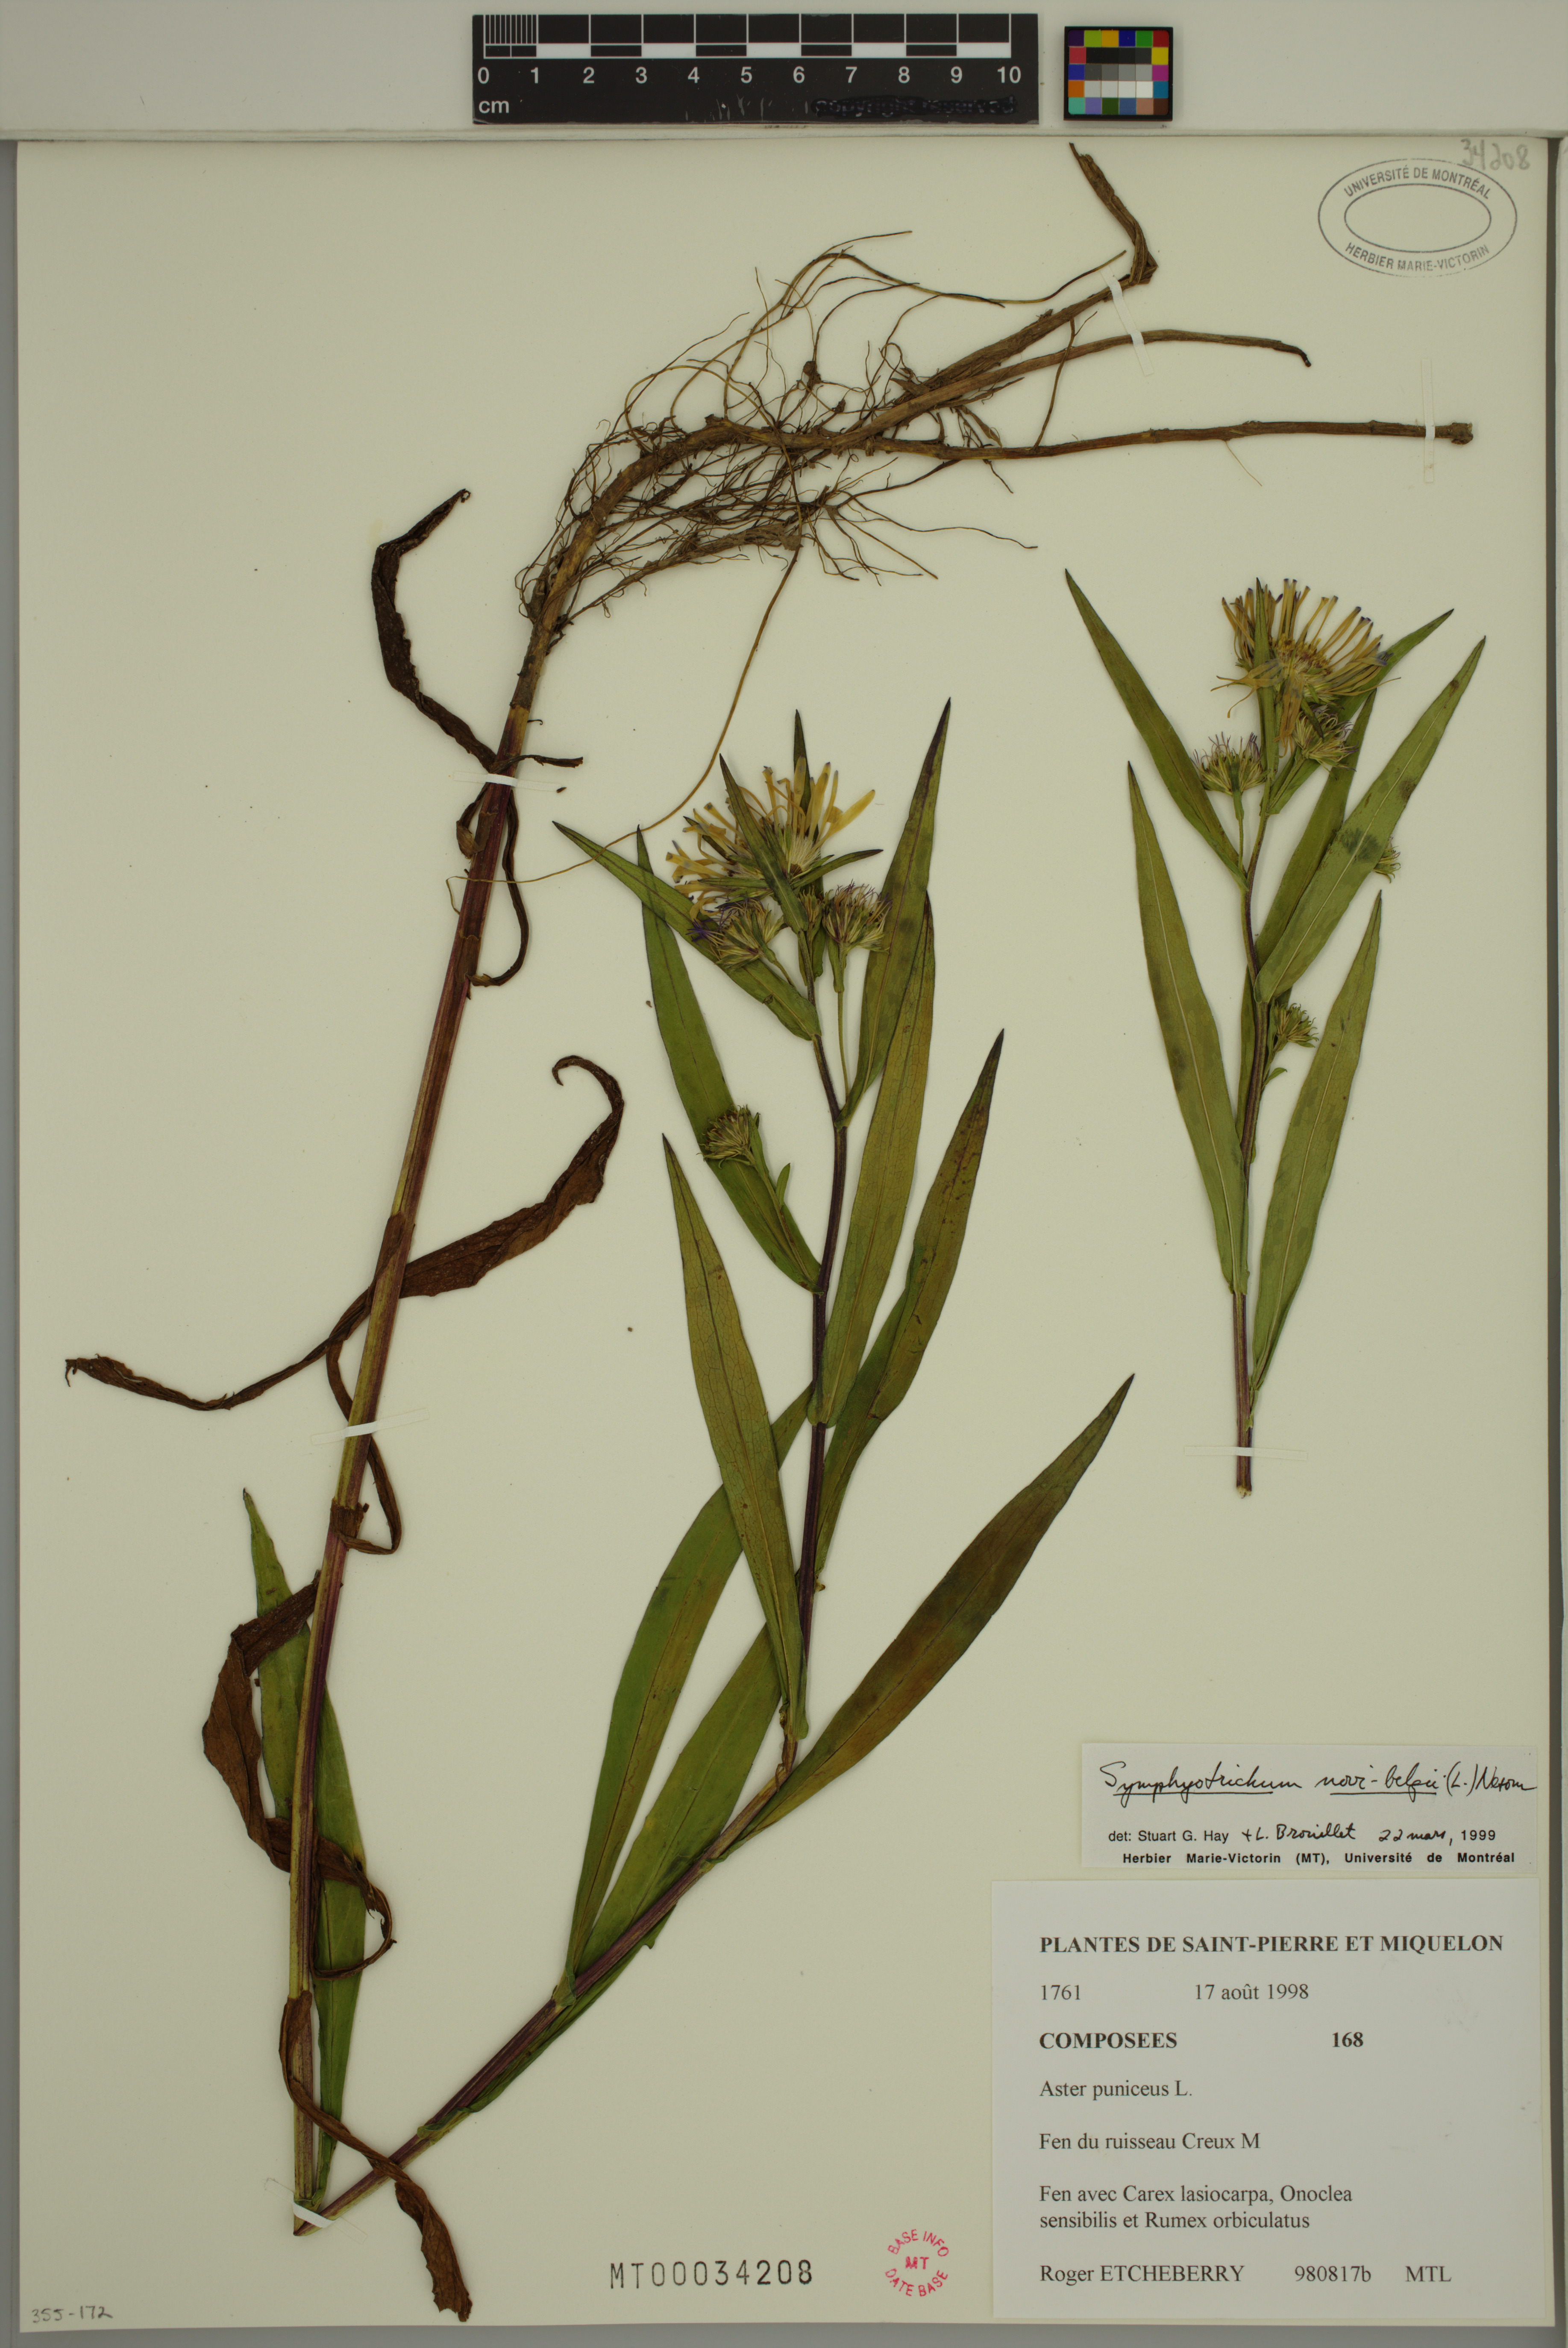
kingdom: Plantae
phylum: Tracheophyta
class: Magnoliopsida
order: Asterales
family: Asteraceae
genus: Symphyotrichum
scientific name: Symphyotrichum novi-belgii
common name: Michaelmas daisy
